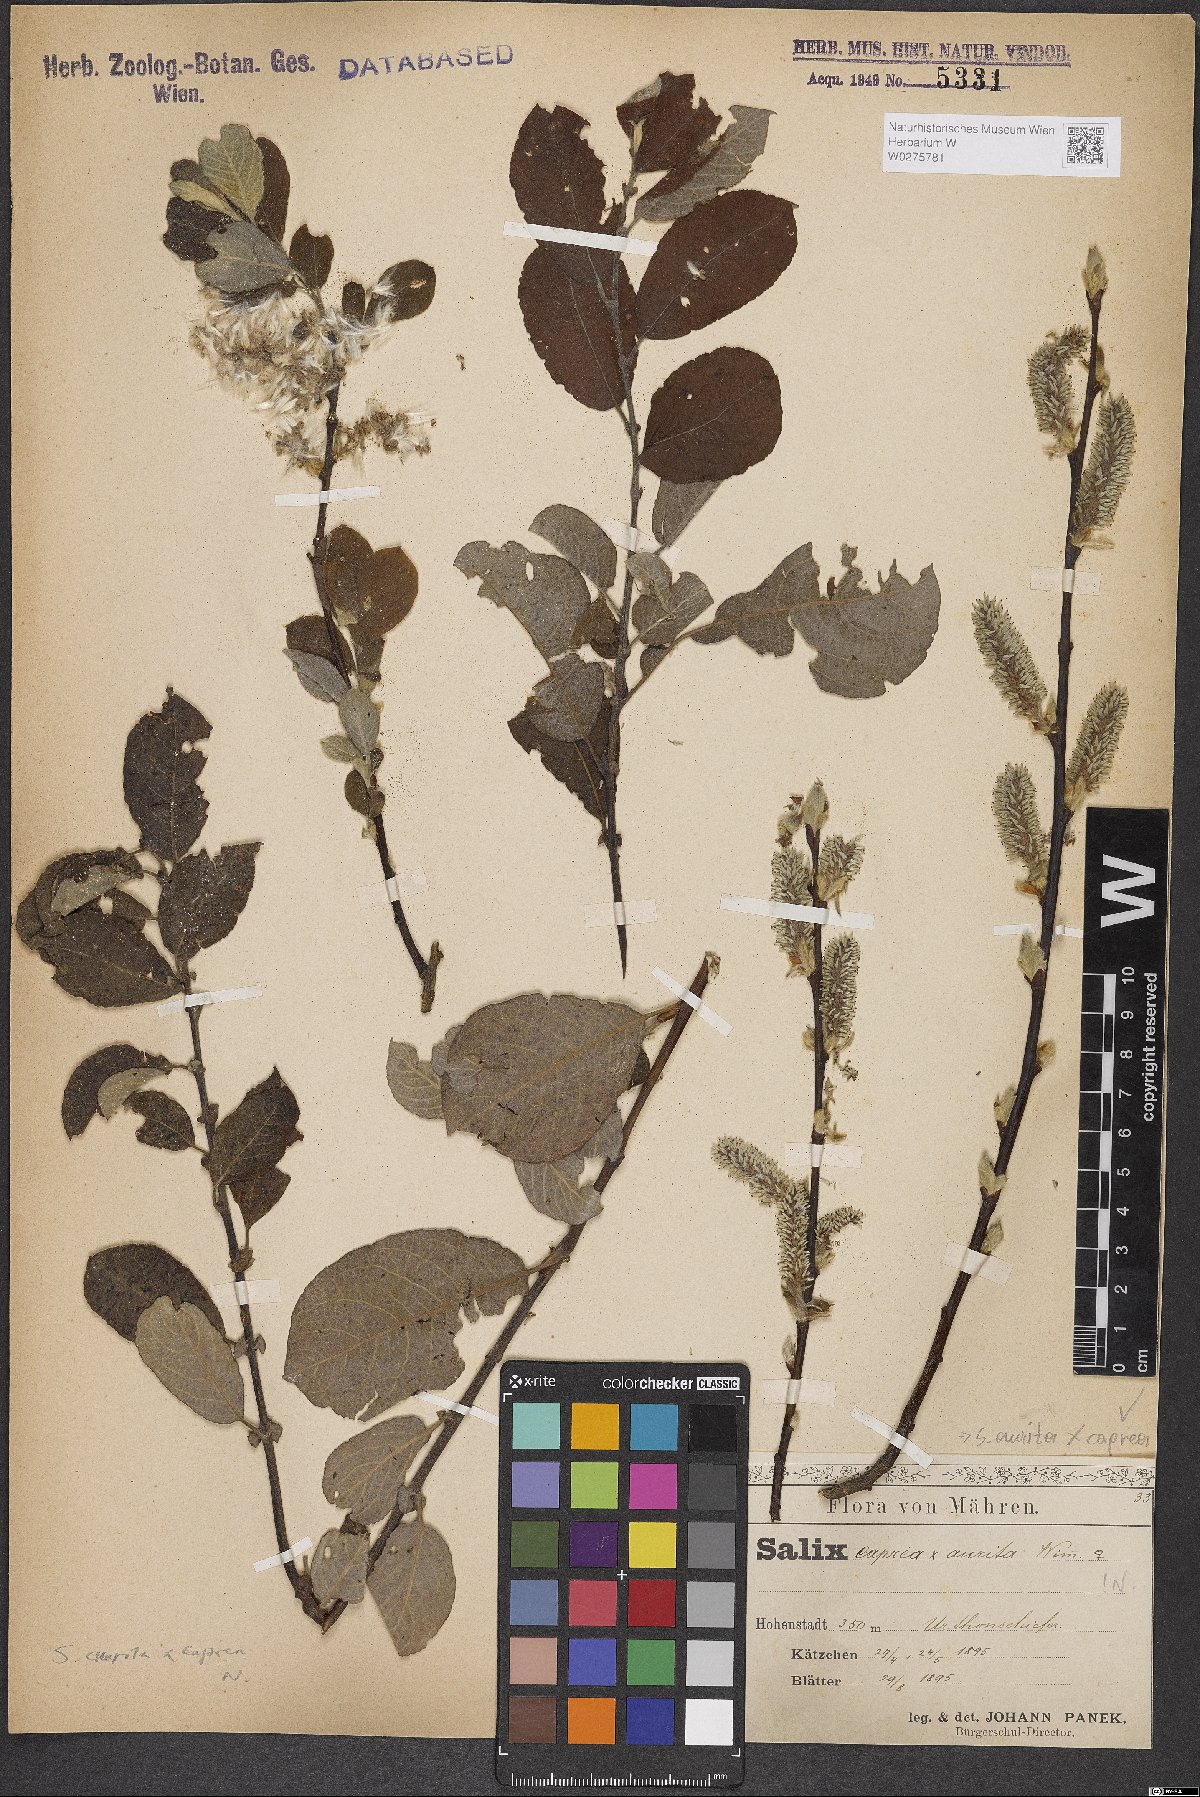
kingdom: Plantae
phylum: Tracheophyta
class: Magnoliopsida
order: Malpighiales
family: Salicaceae
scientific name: Salicaceae
